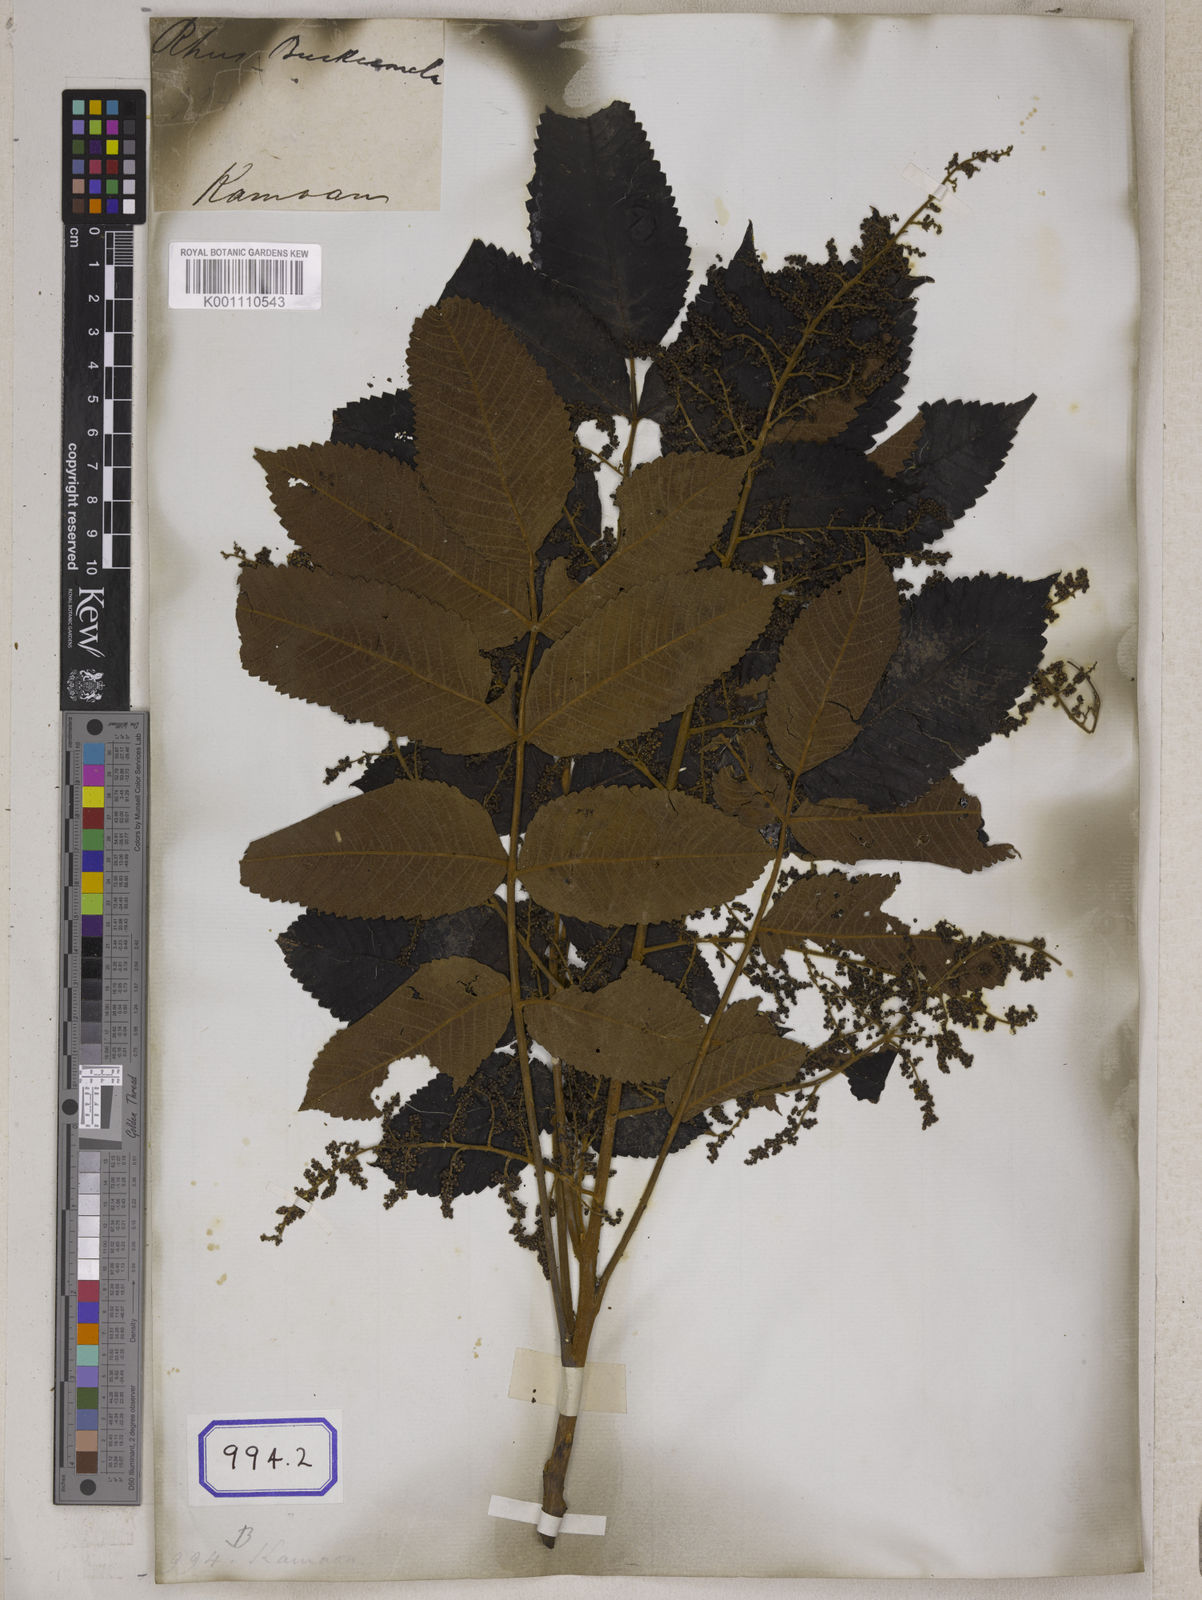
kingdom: Plantae
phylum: Tracheophyta
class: Magnoliopsida
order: Sapindales
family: Simaroubaceae
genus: Brucea
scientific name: Brucea javanica
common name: Macassar kernels
